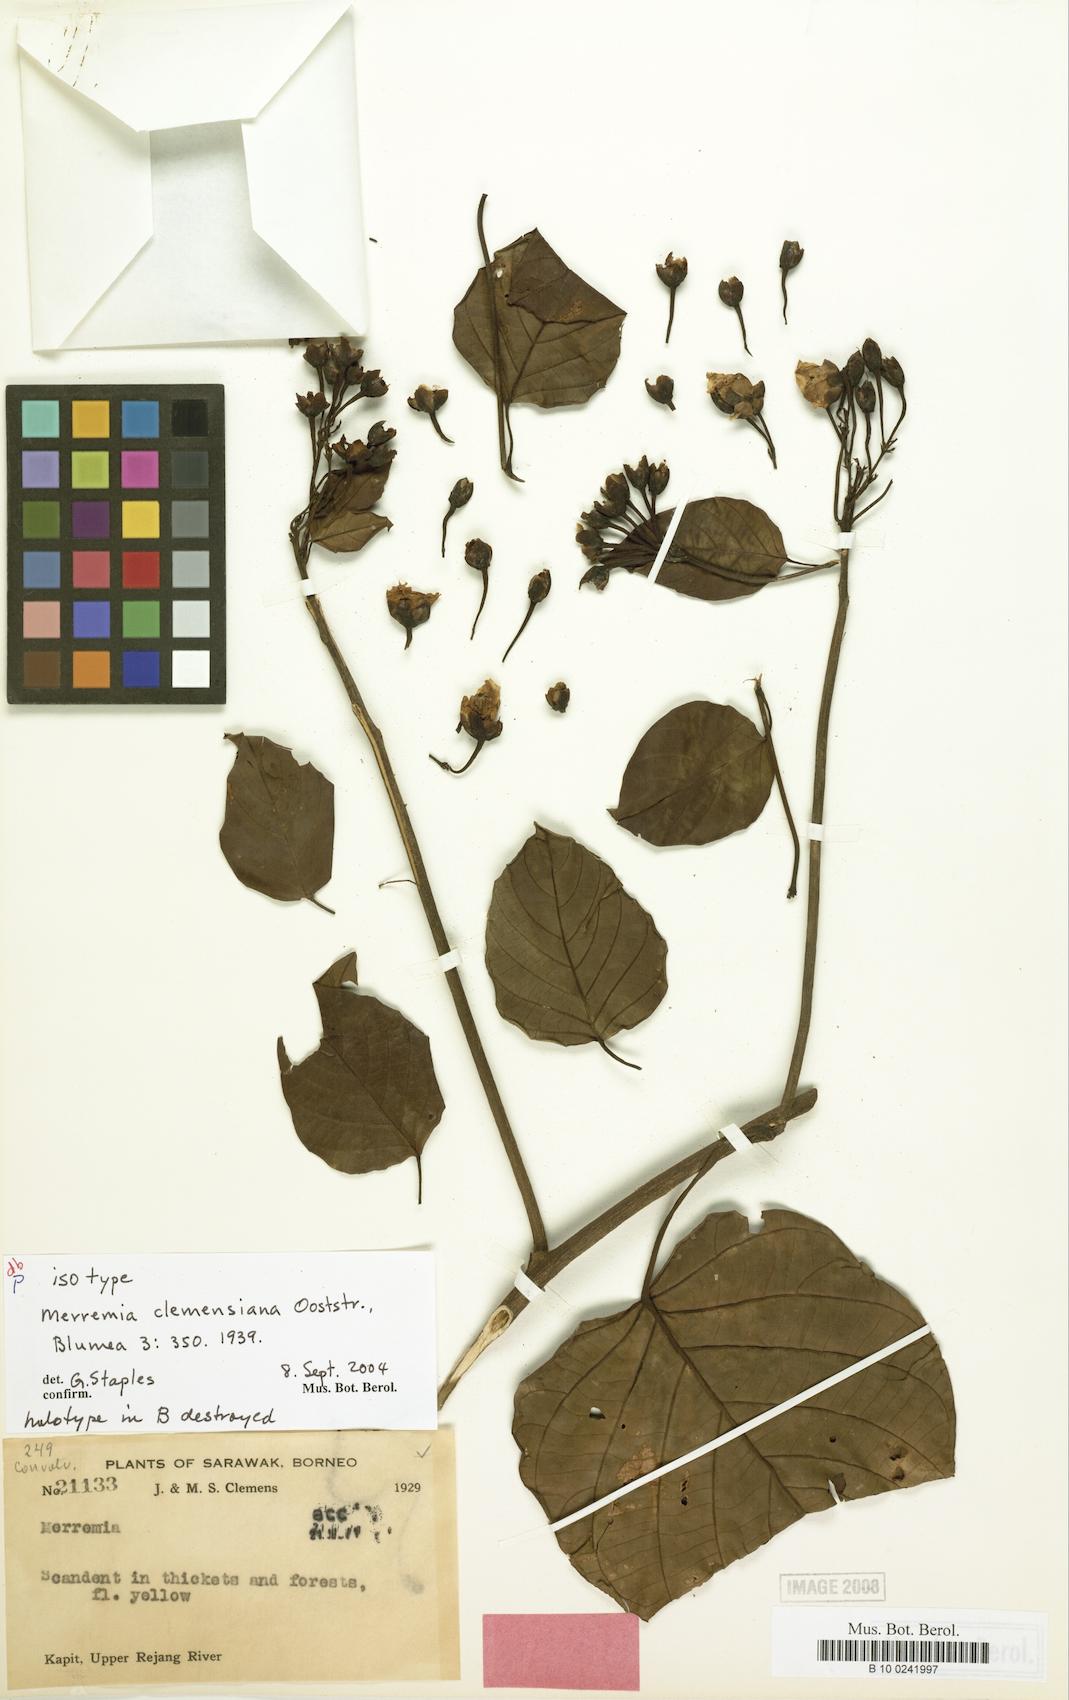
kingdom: Plantae
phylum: Tracheophyta
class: Magnoliopsida
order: Solanales
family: Convolvulaceae
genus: Merremia
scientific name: Merremia clemensiana
